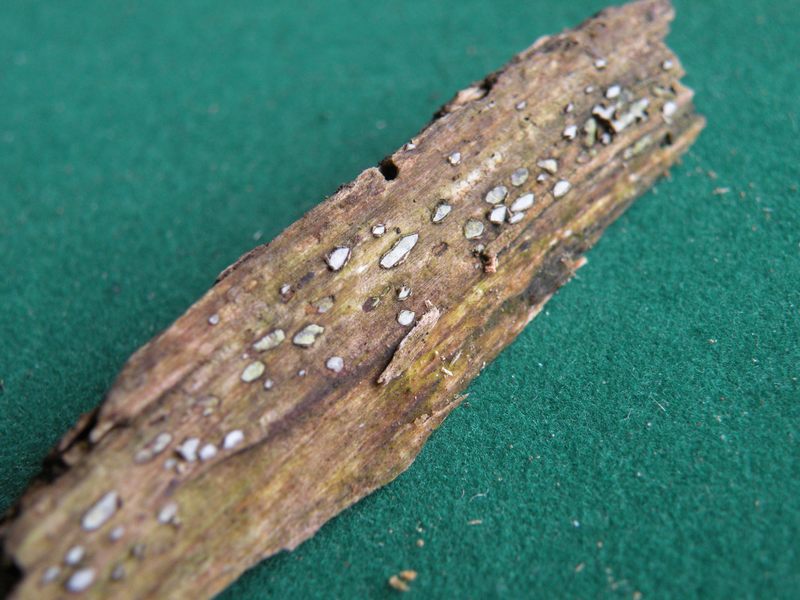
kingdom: Fungi
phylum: Ascomycota
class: Leotiomycetes
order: Chaetomellales
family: Marthamycetaceae
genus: Propolis
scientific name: Propolis farinosa
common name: almindelig vedsprængerskive
